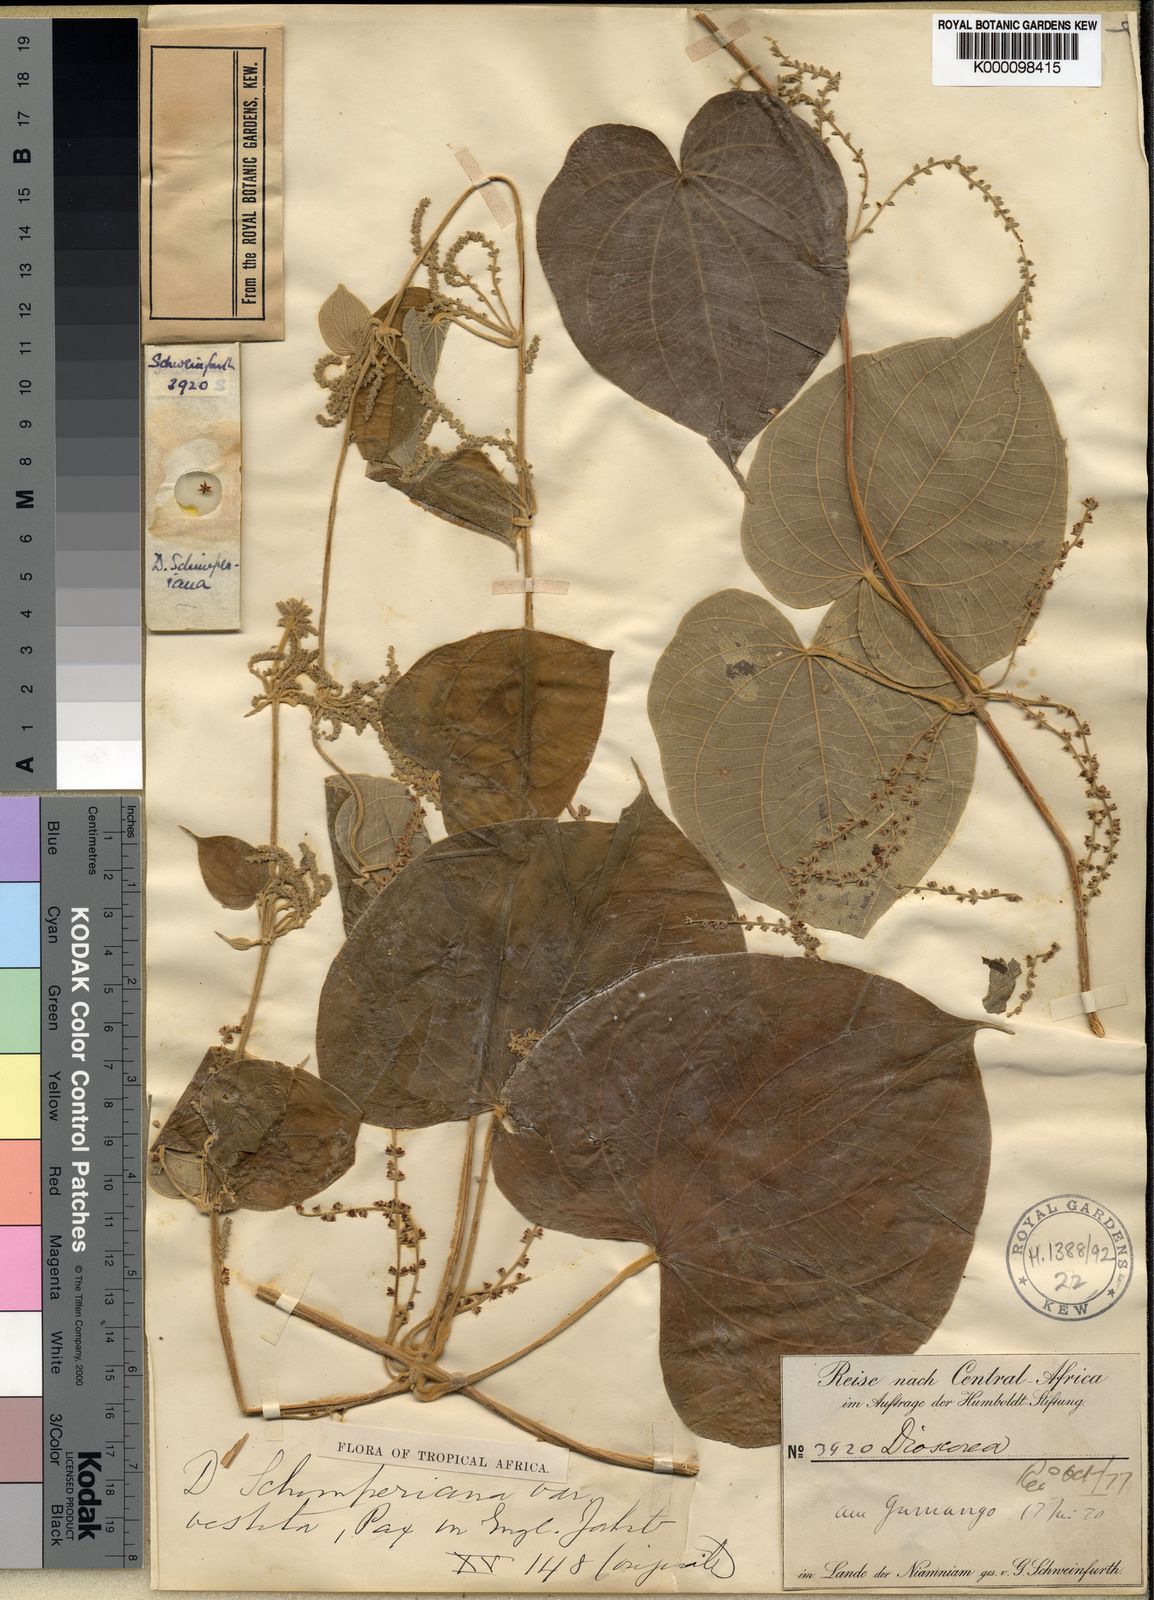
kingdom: Plantae
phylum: Tracheophyta
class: Liliopsida
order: Dioscoreales
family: Dioscoreaceae
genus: Dioscorea
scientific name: Dioscorea
